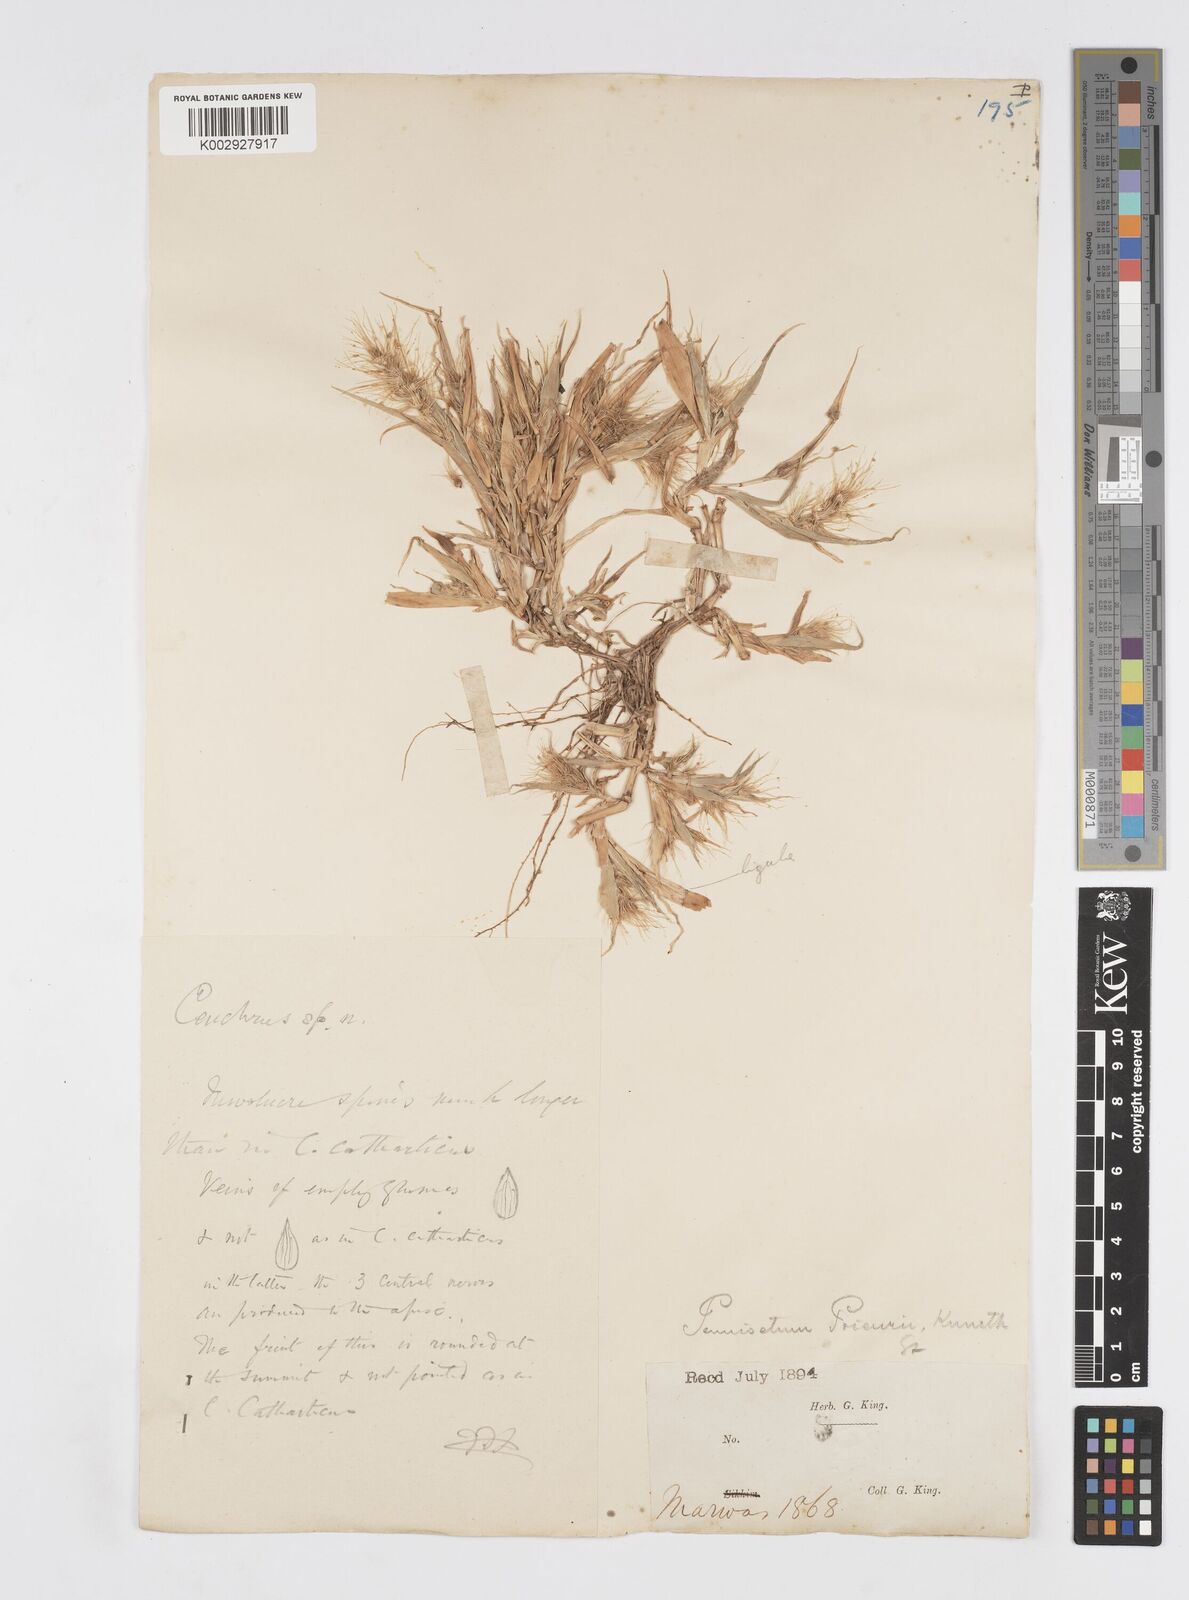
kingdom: Plantae
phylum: Tracheophyta
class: Liliopsida
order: Poales
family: Poaceae
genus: Cenchrus
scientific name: Cenchrus prieurii
